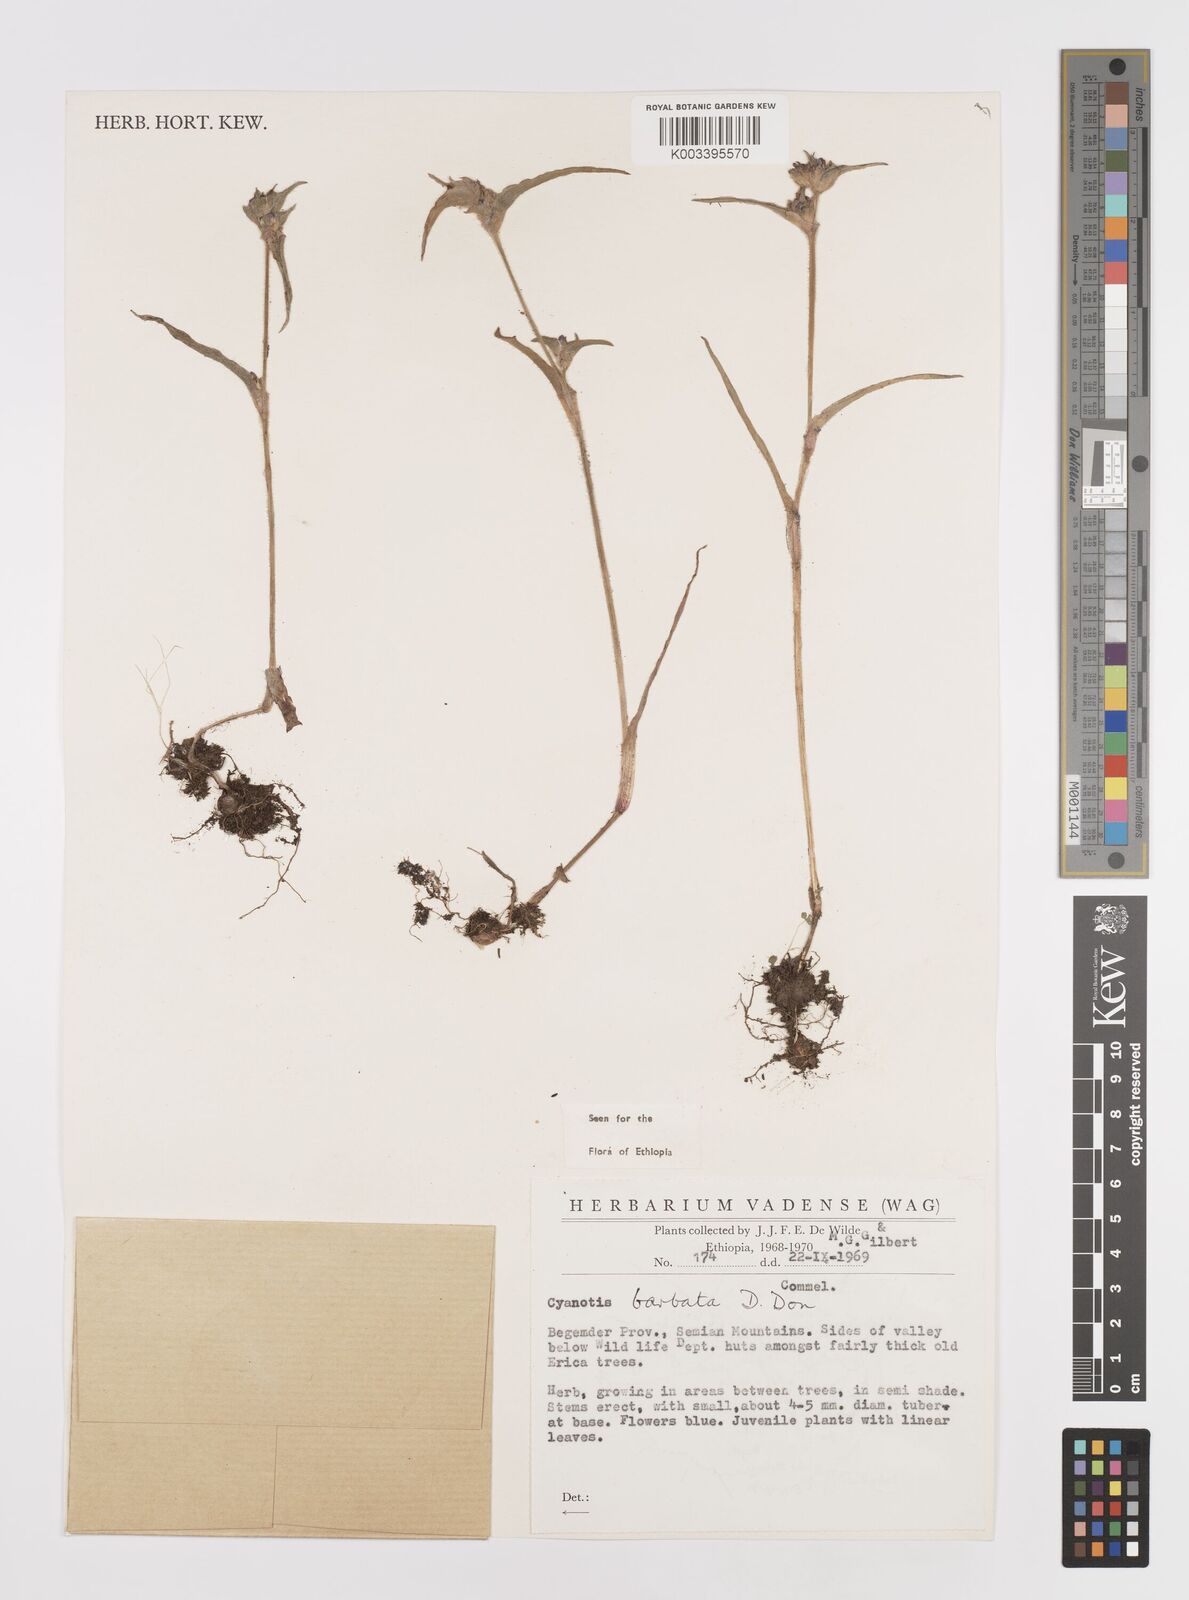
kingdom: Plantae
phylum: Tracheophyta
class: Liliopsida
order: Commelinales
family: Commelinaceae
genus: Cyanotis
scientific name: Cyanotis vaga
